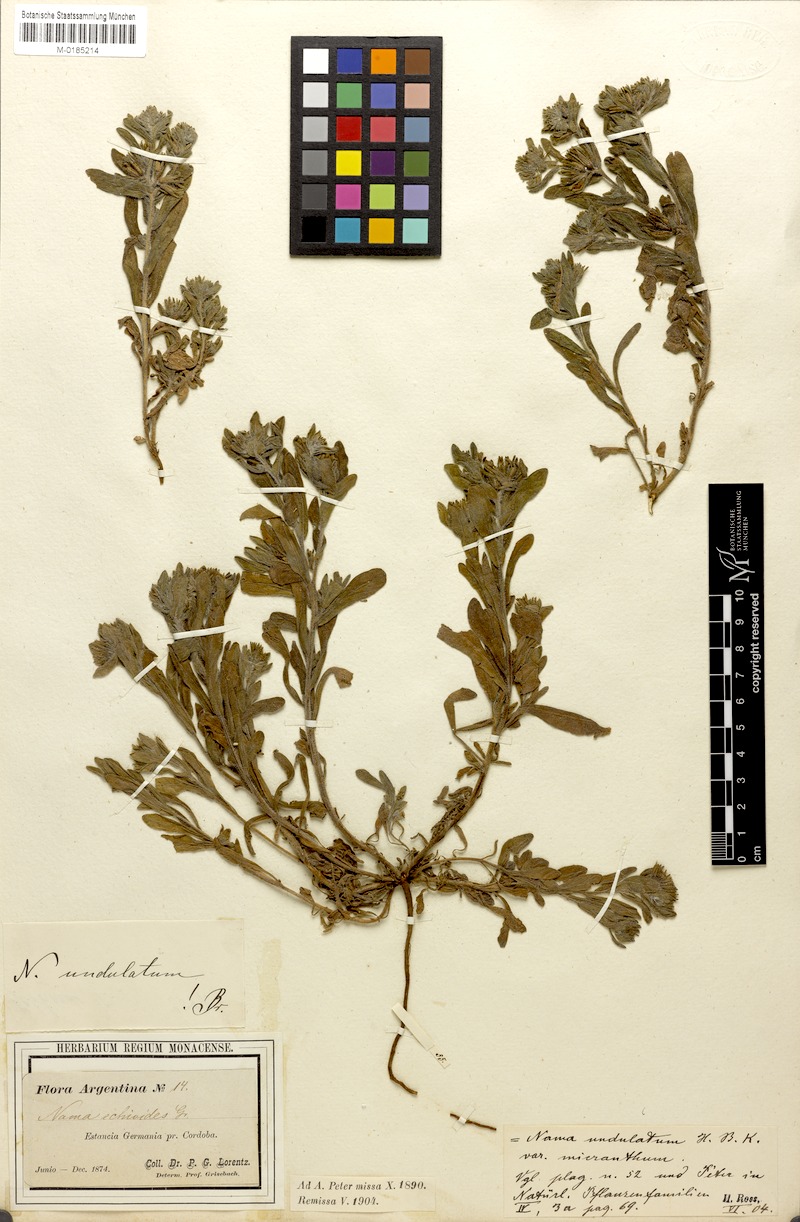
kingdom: Plantae
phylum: Tracheophyta
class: Magnoliopsida
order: Boraginales
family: Namaceae
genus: Nama
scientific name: Nama undulata
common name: Whitewhisker fiddleleaf
